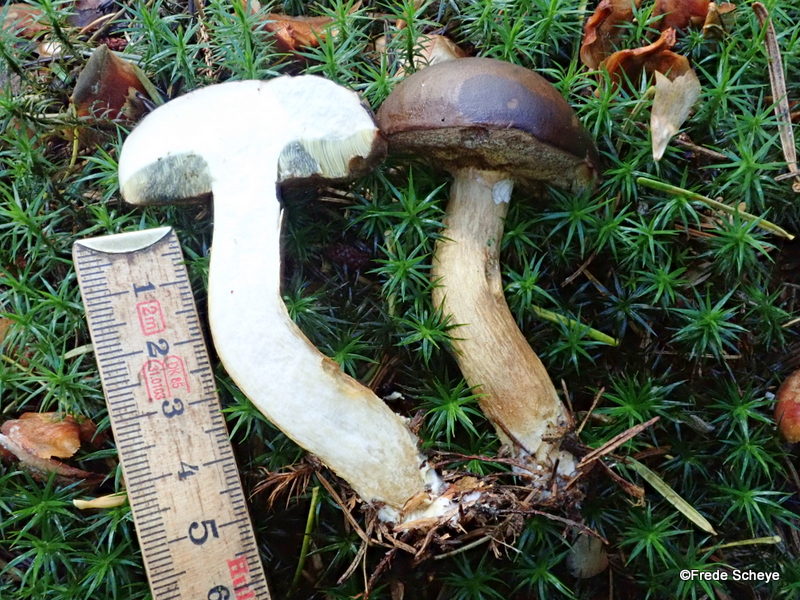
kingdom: Fungi
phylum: Basidiomycota
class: Agaricomycetes
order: Boletales
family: Boletaceae
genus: Imleria
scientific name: Imleria badia
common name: brunstokket rørhat
